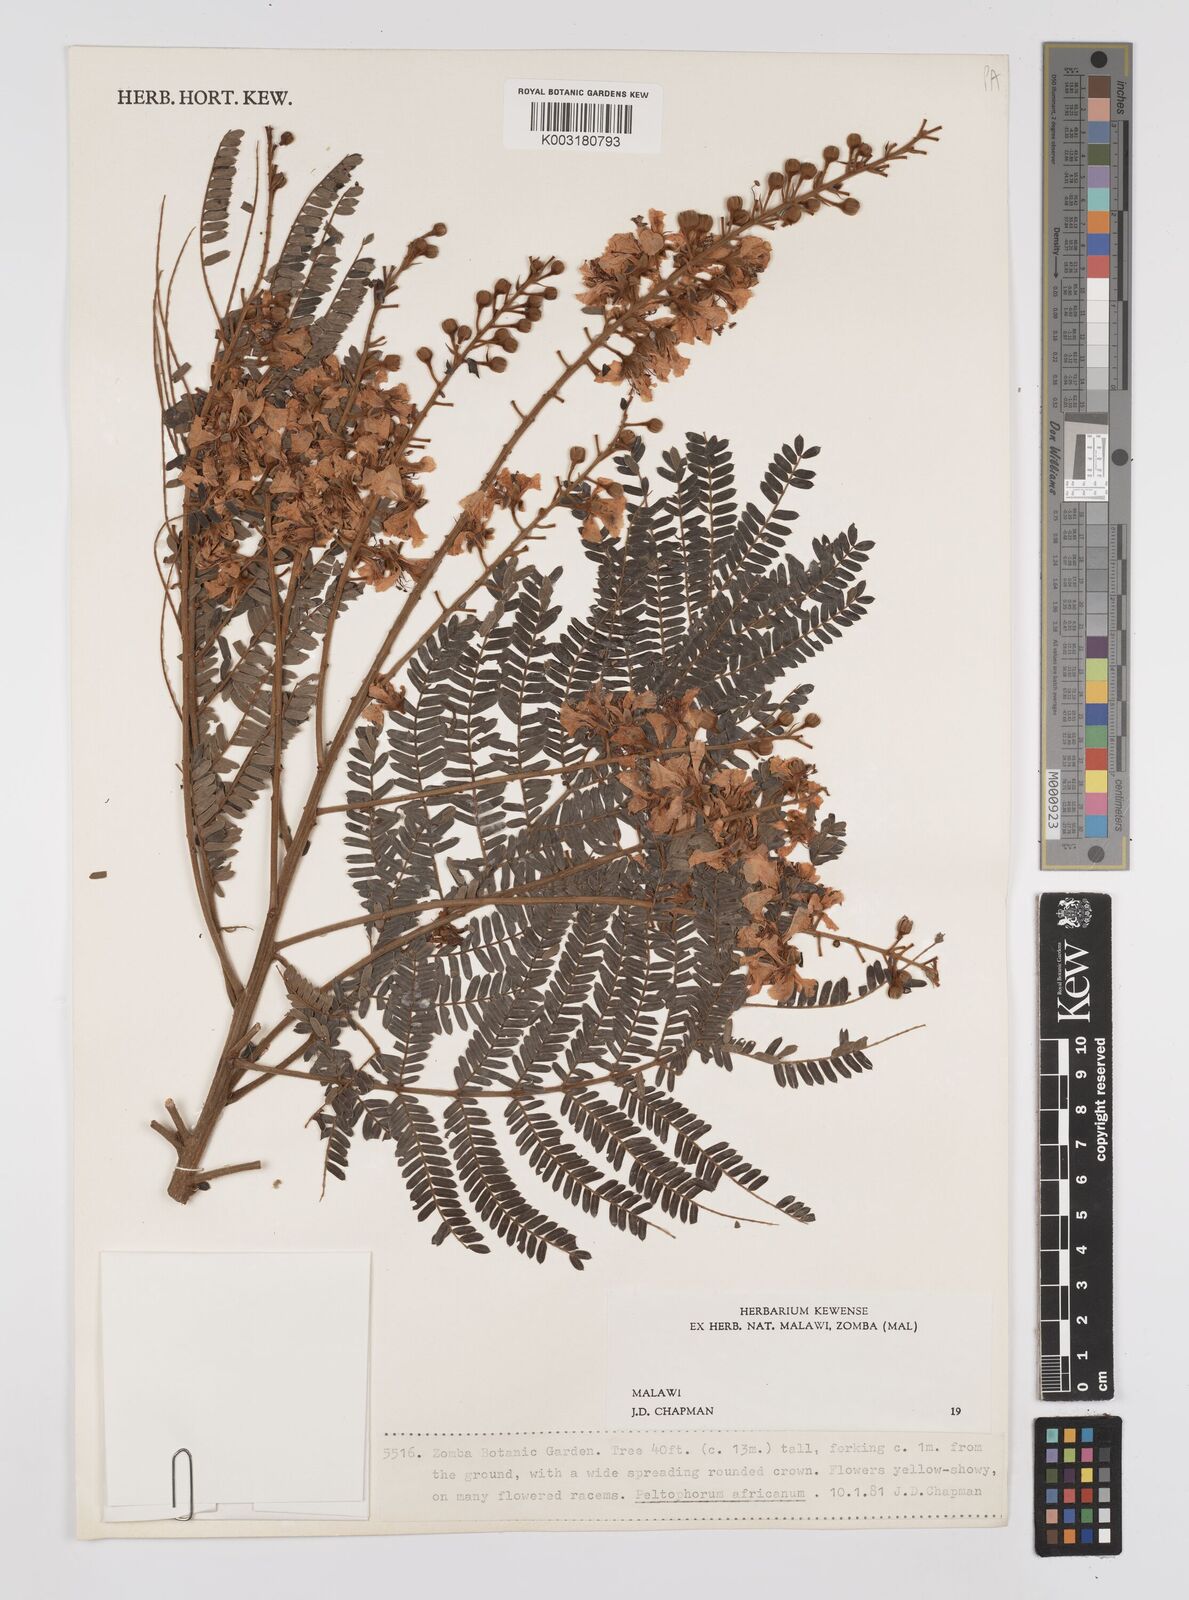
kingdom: Plantae
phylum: Tracheophyta
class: Magnoliopsida
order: Fabales
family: Fabaceae
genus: Peltophorum
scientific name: Peltophorum africanum
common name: African black wattle
